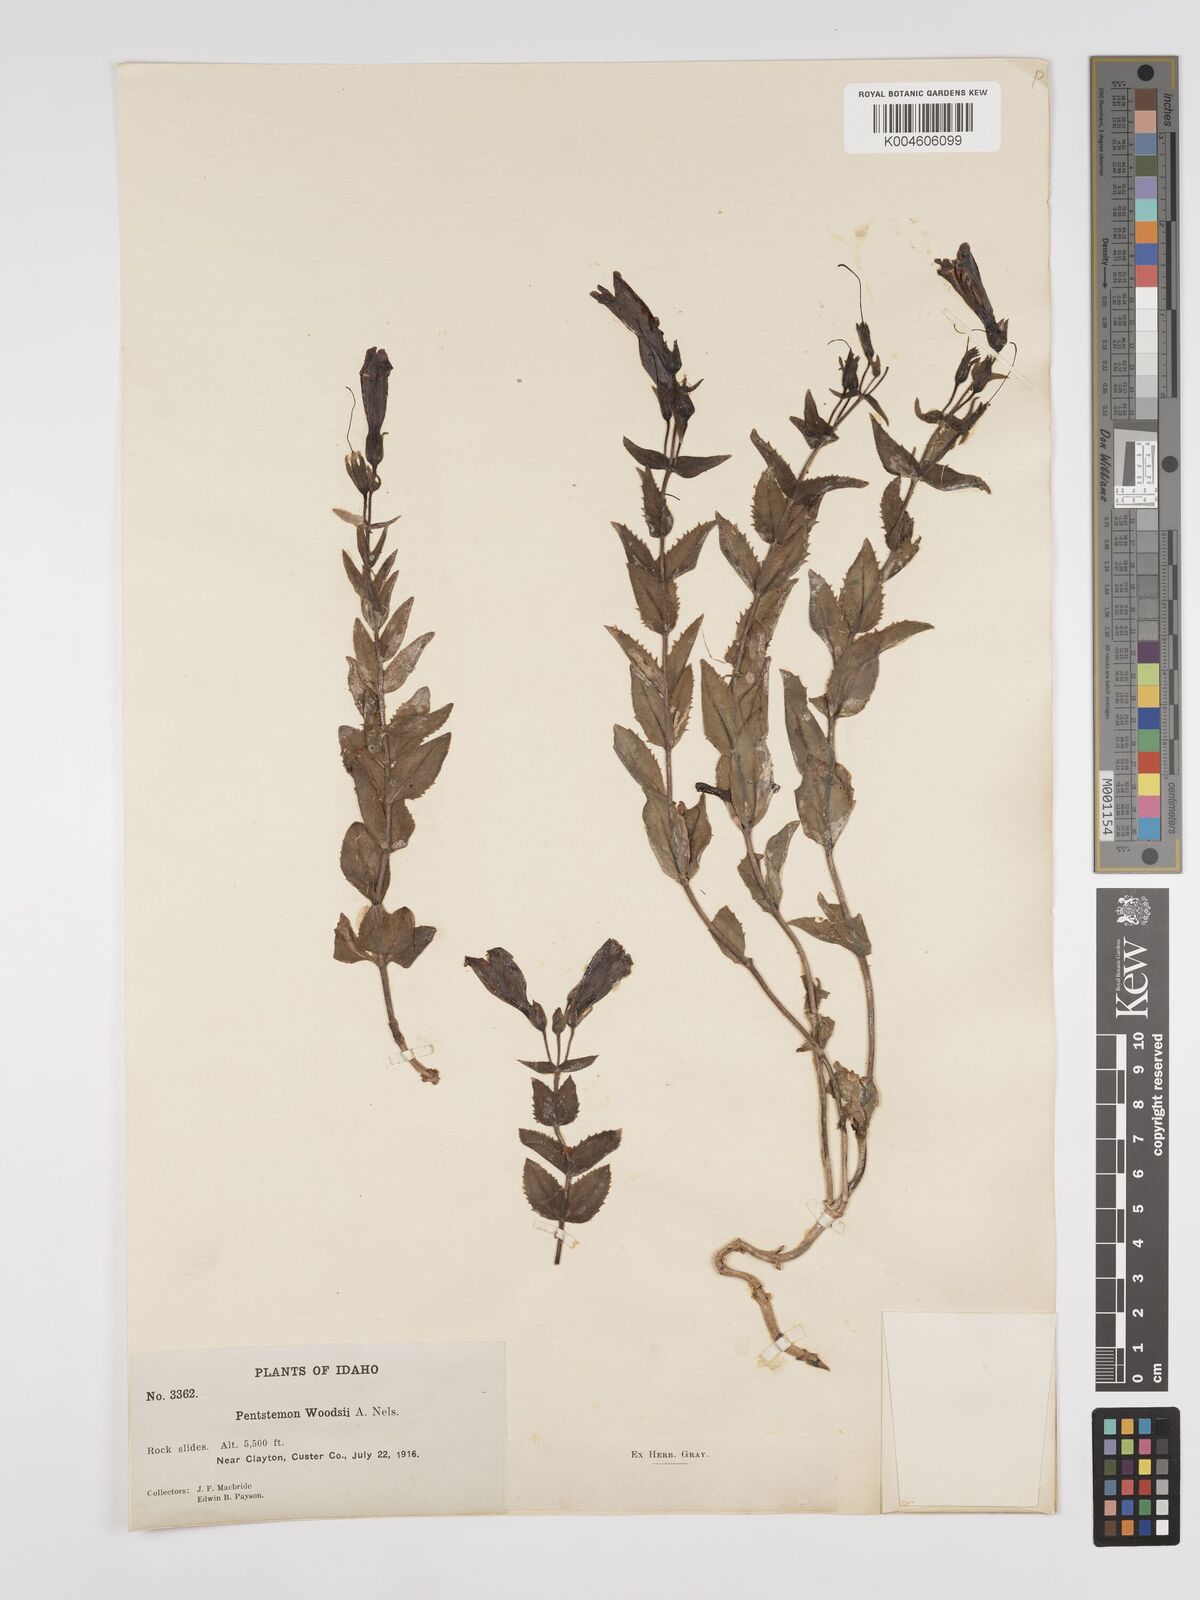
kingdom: Plantae
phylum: Tracheophyta
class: Magnoliopsida
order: Lamiales
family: Plantaginaceae
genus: Penstemon
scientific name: Penstemon montanus
